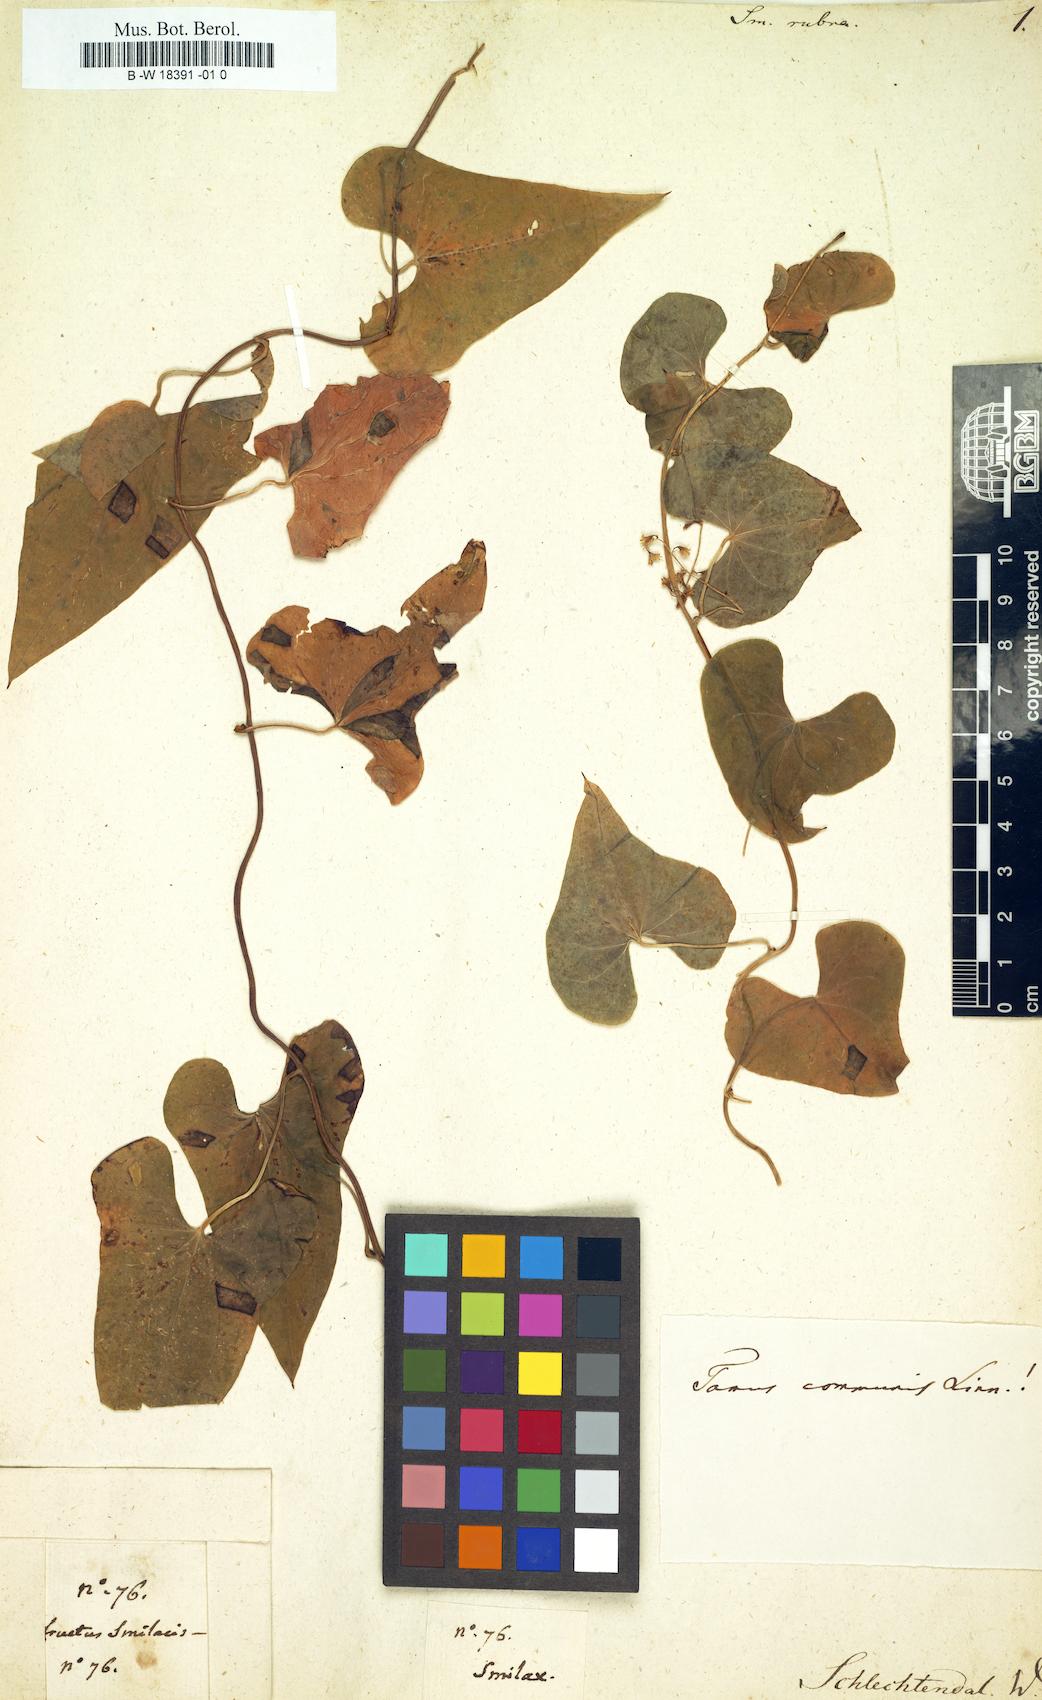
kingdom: Plantae
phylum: Tracheophyta
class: Liliopsida
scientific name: Liliopsida
